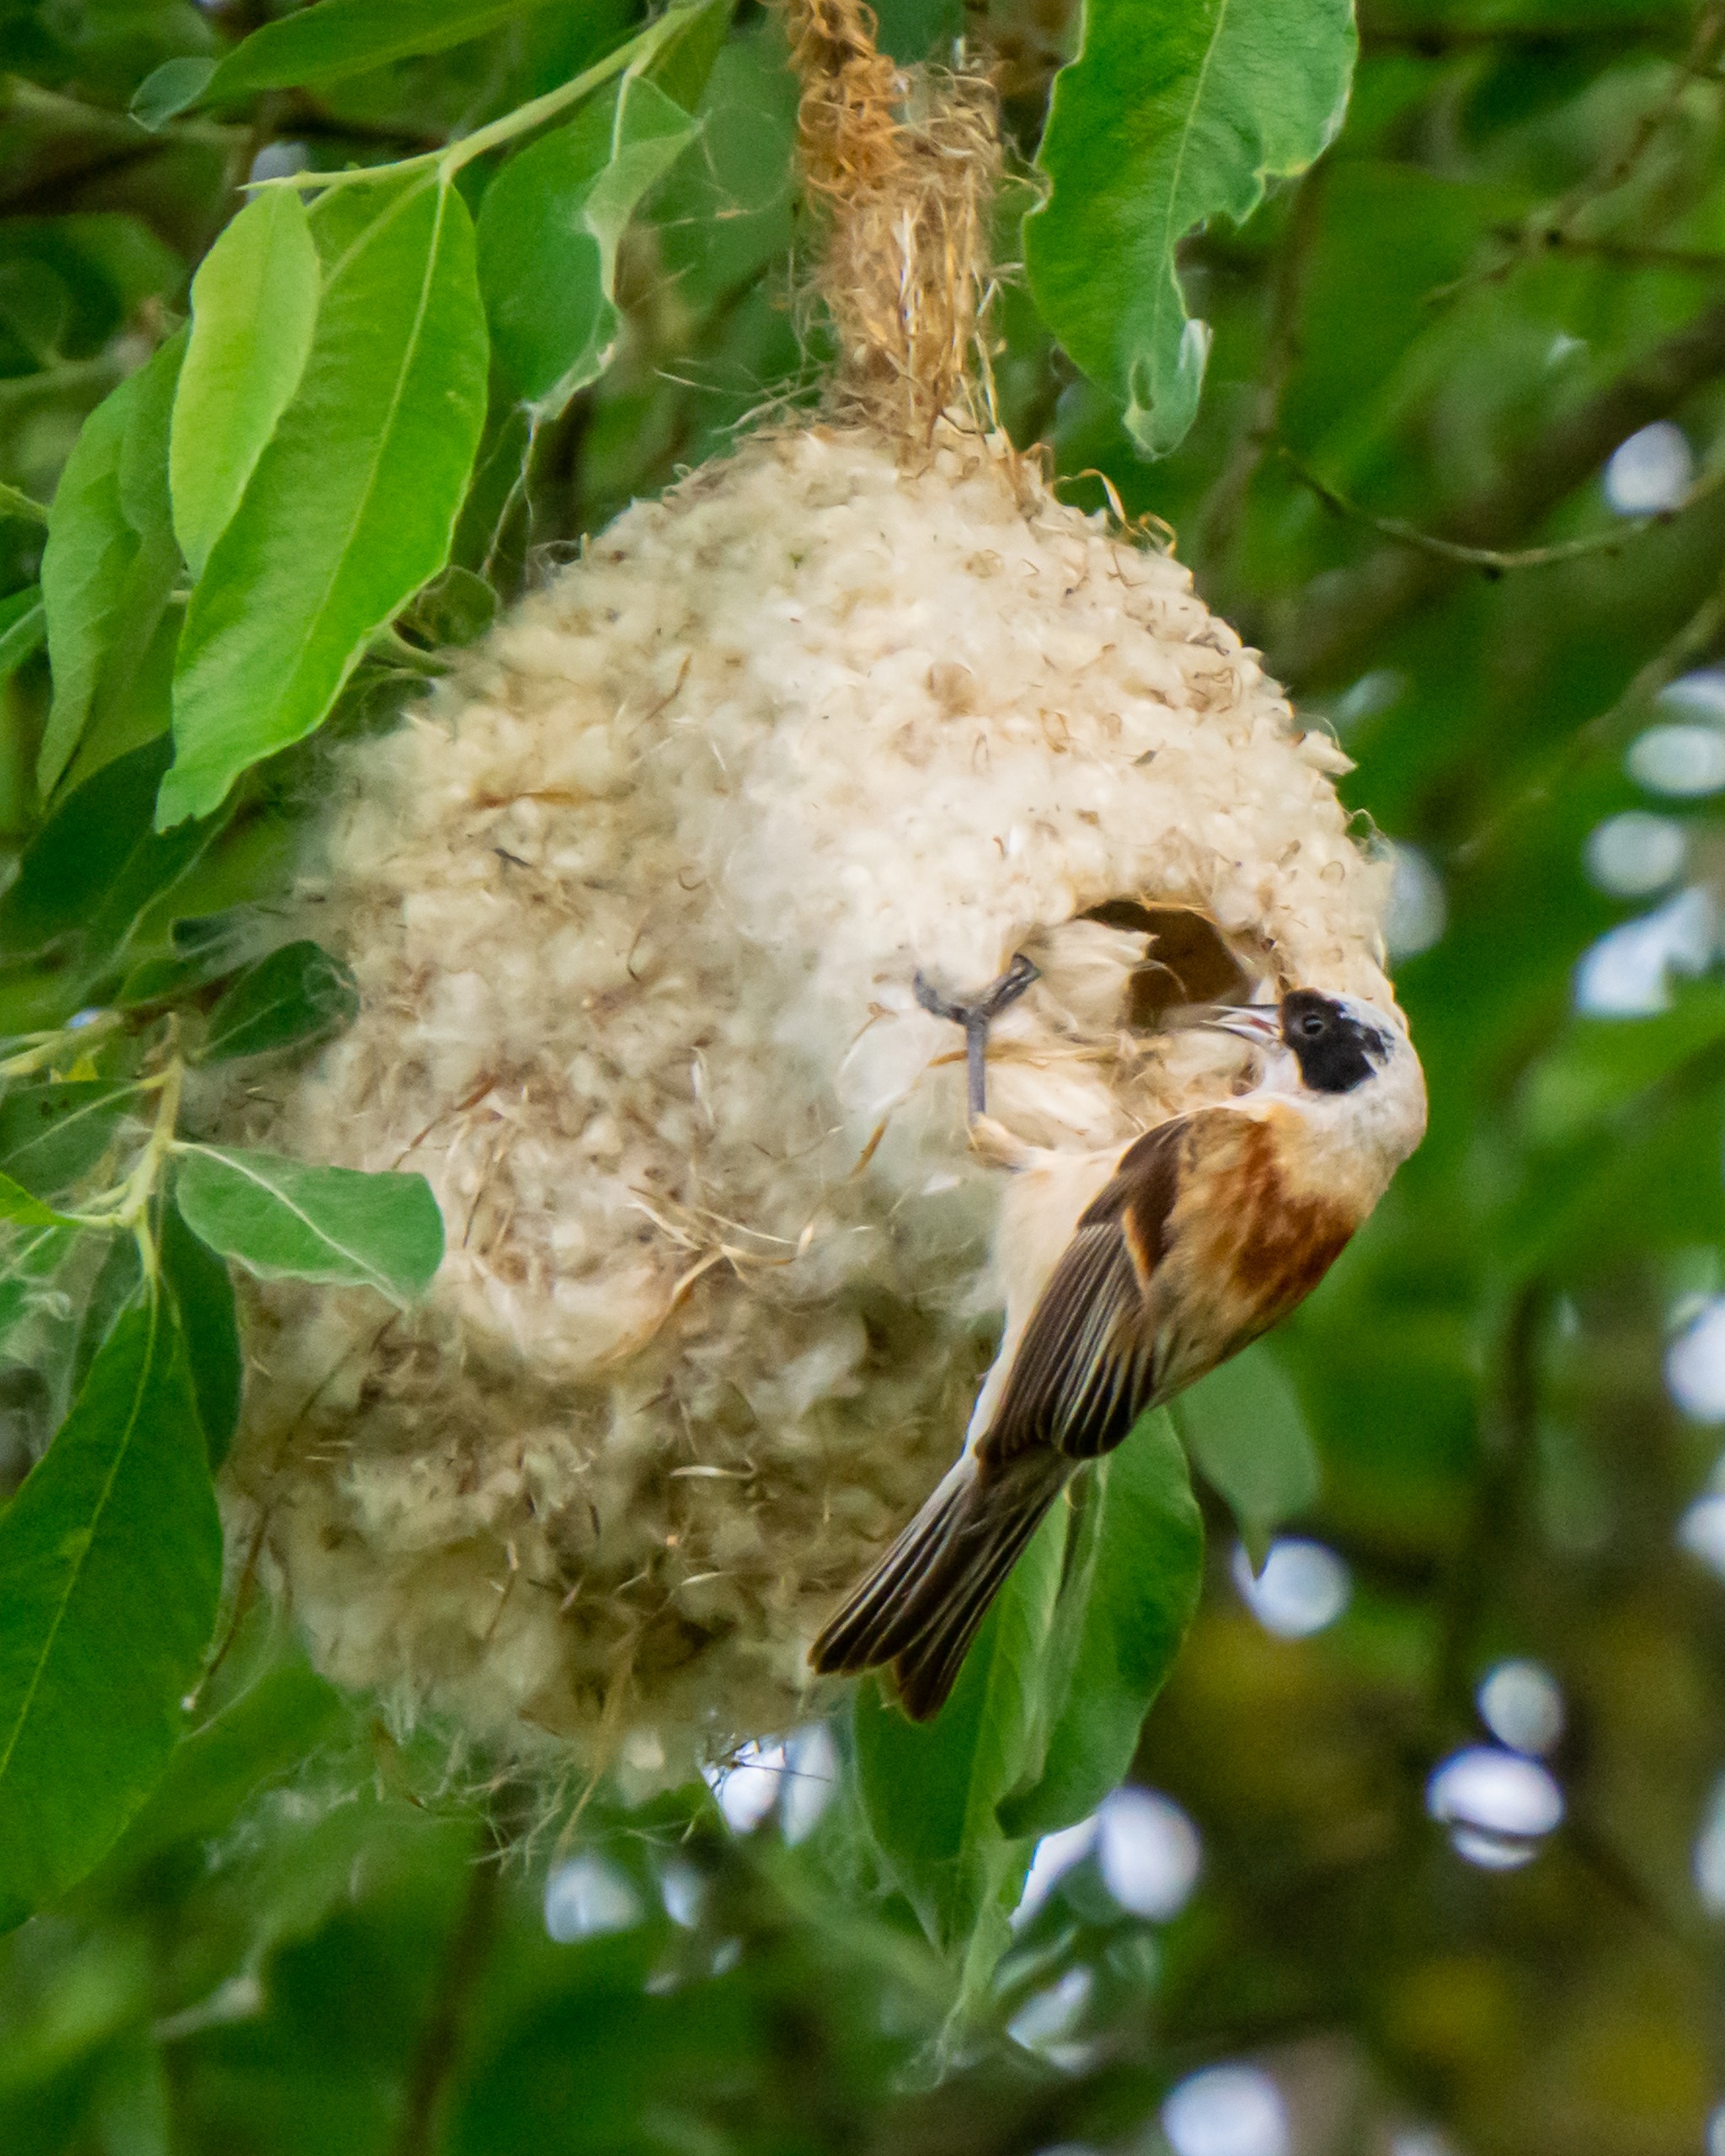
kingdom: Animalia
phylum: Chordata
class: Aves
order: Passeriformes
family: Remizidae
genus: Remiz
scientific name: Remiz pendulinus
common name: Pungmejse
